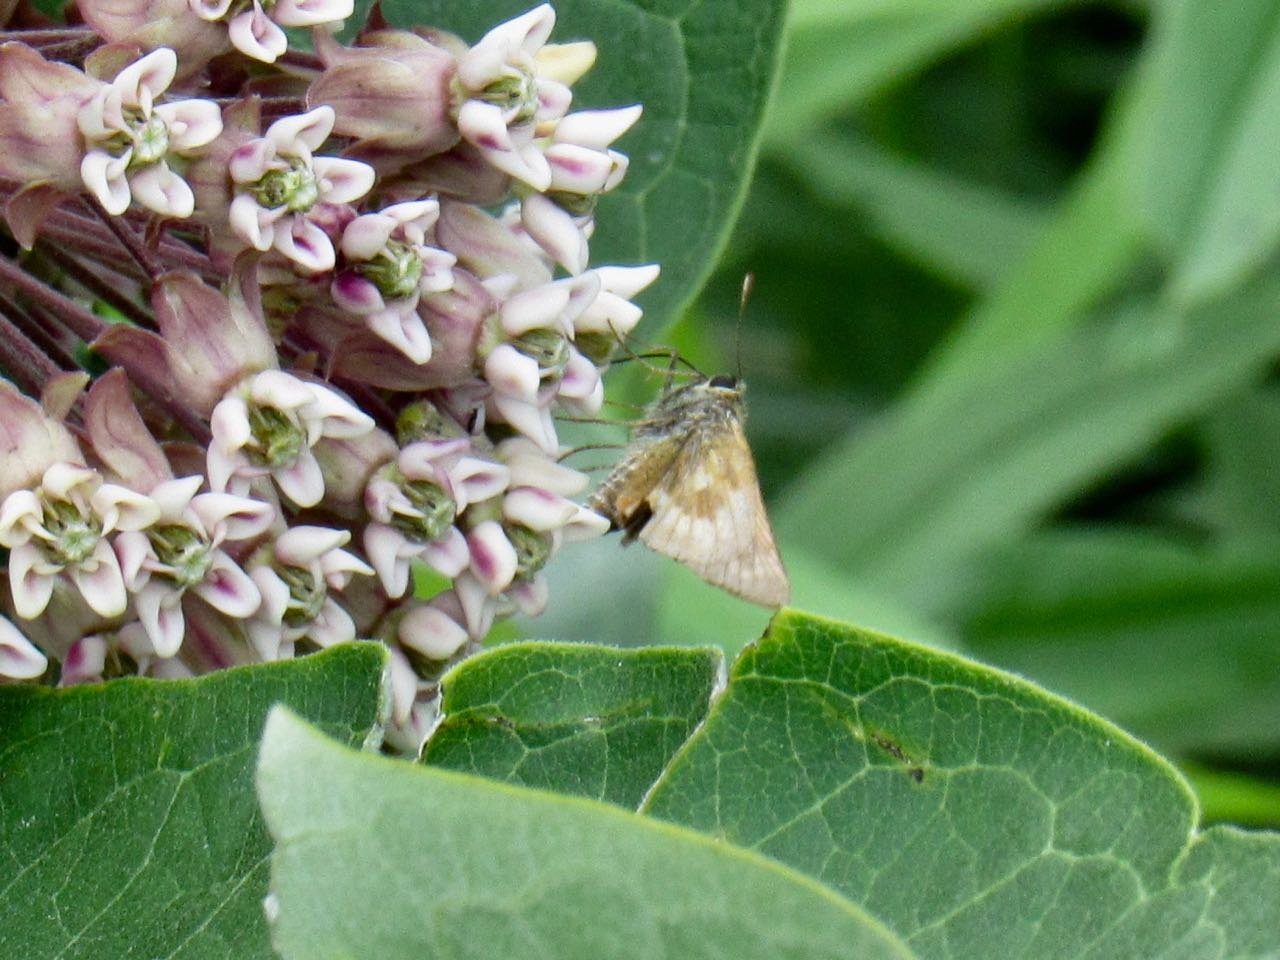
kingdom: Animalia
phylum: Arthropoda
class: Insecta
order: Lepidoptera
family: Hesperiidae
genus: Polites
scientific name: Polites
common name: Long Dash Skipper
